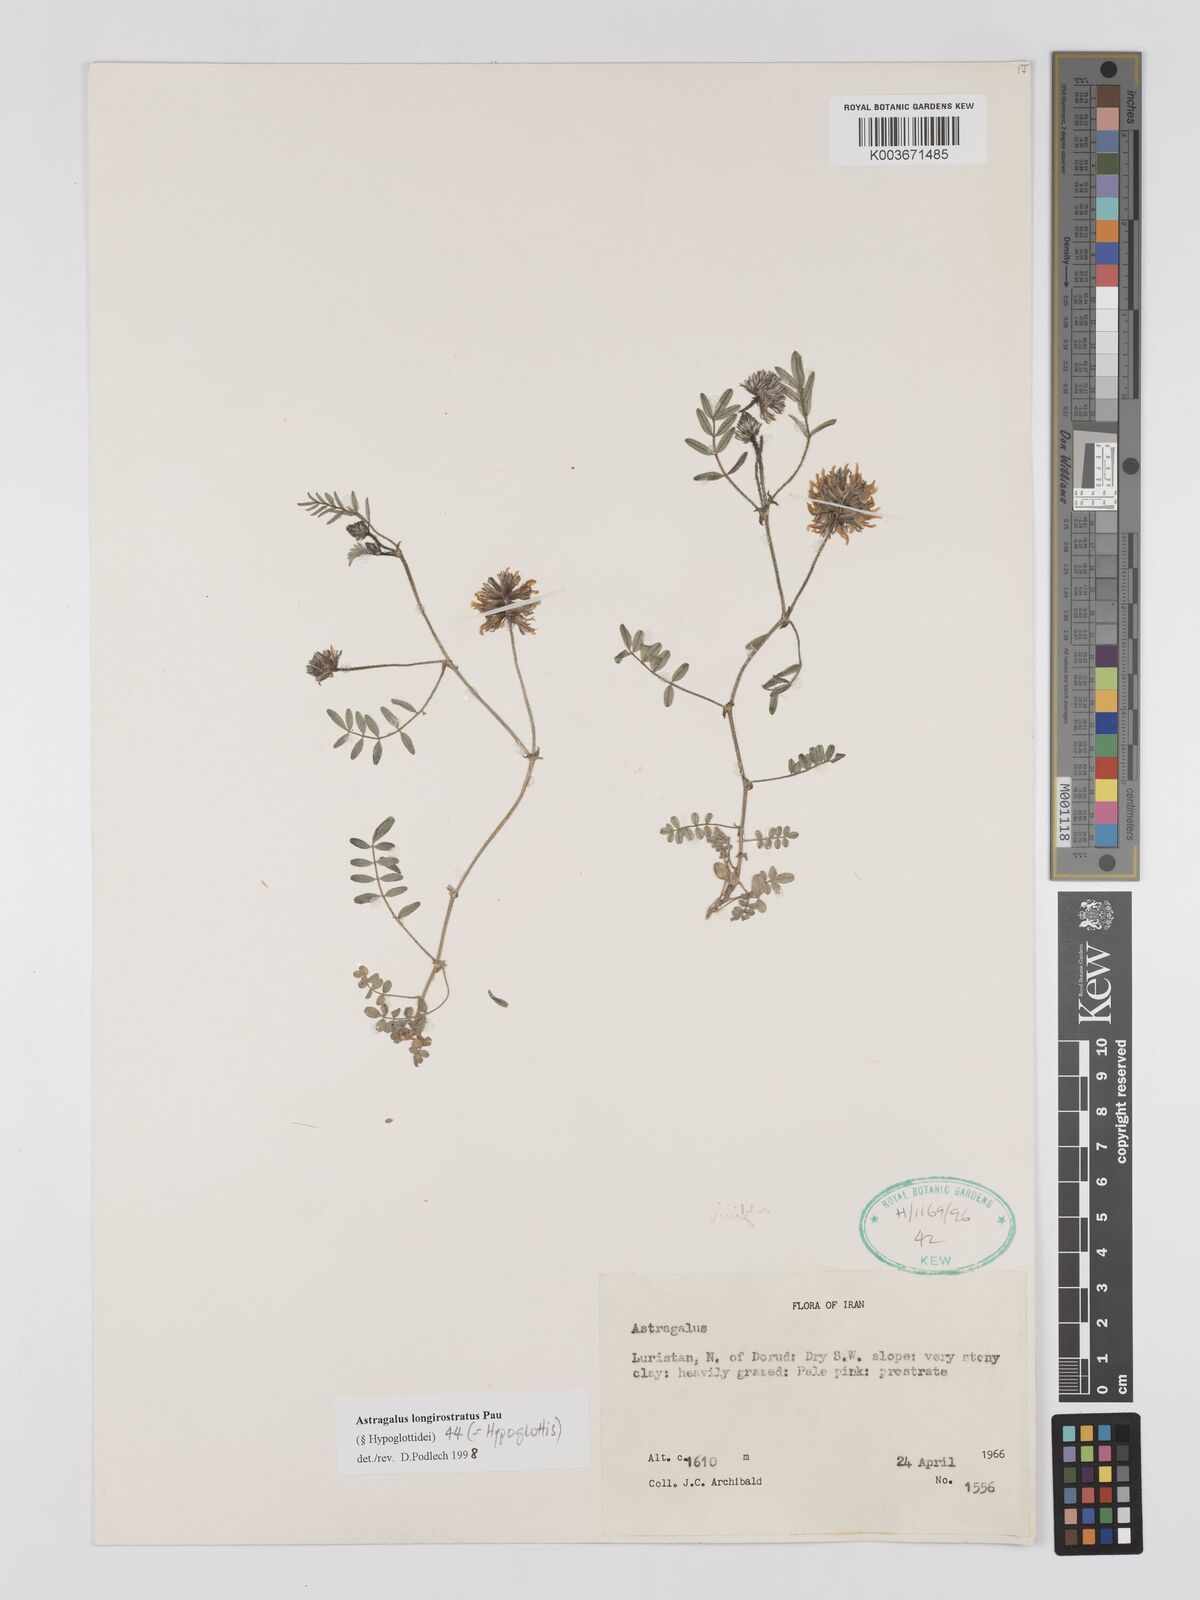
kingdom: Plantae
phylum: Tracheophyta
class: Magnoliopsida
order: Fabales
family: Fabaceae
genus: Astragalus
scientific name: Astragalus longirostratus
